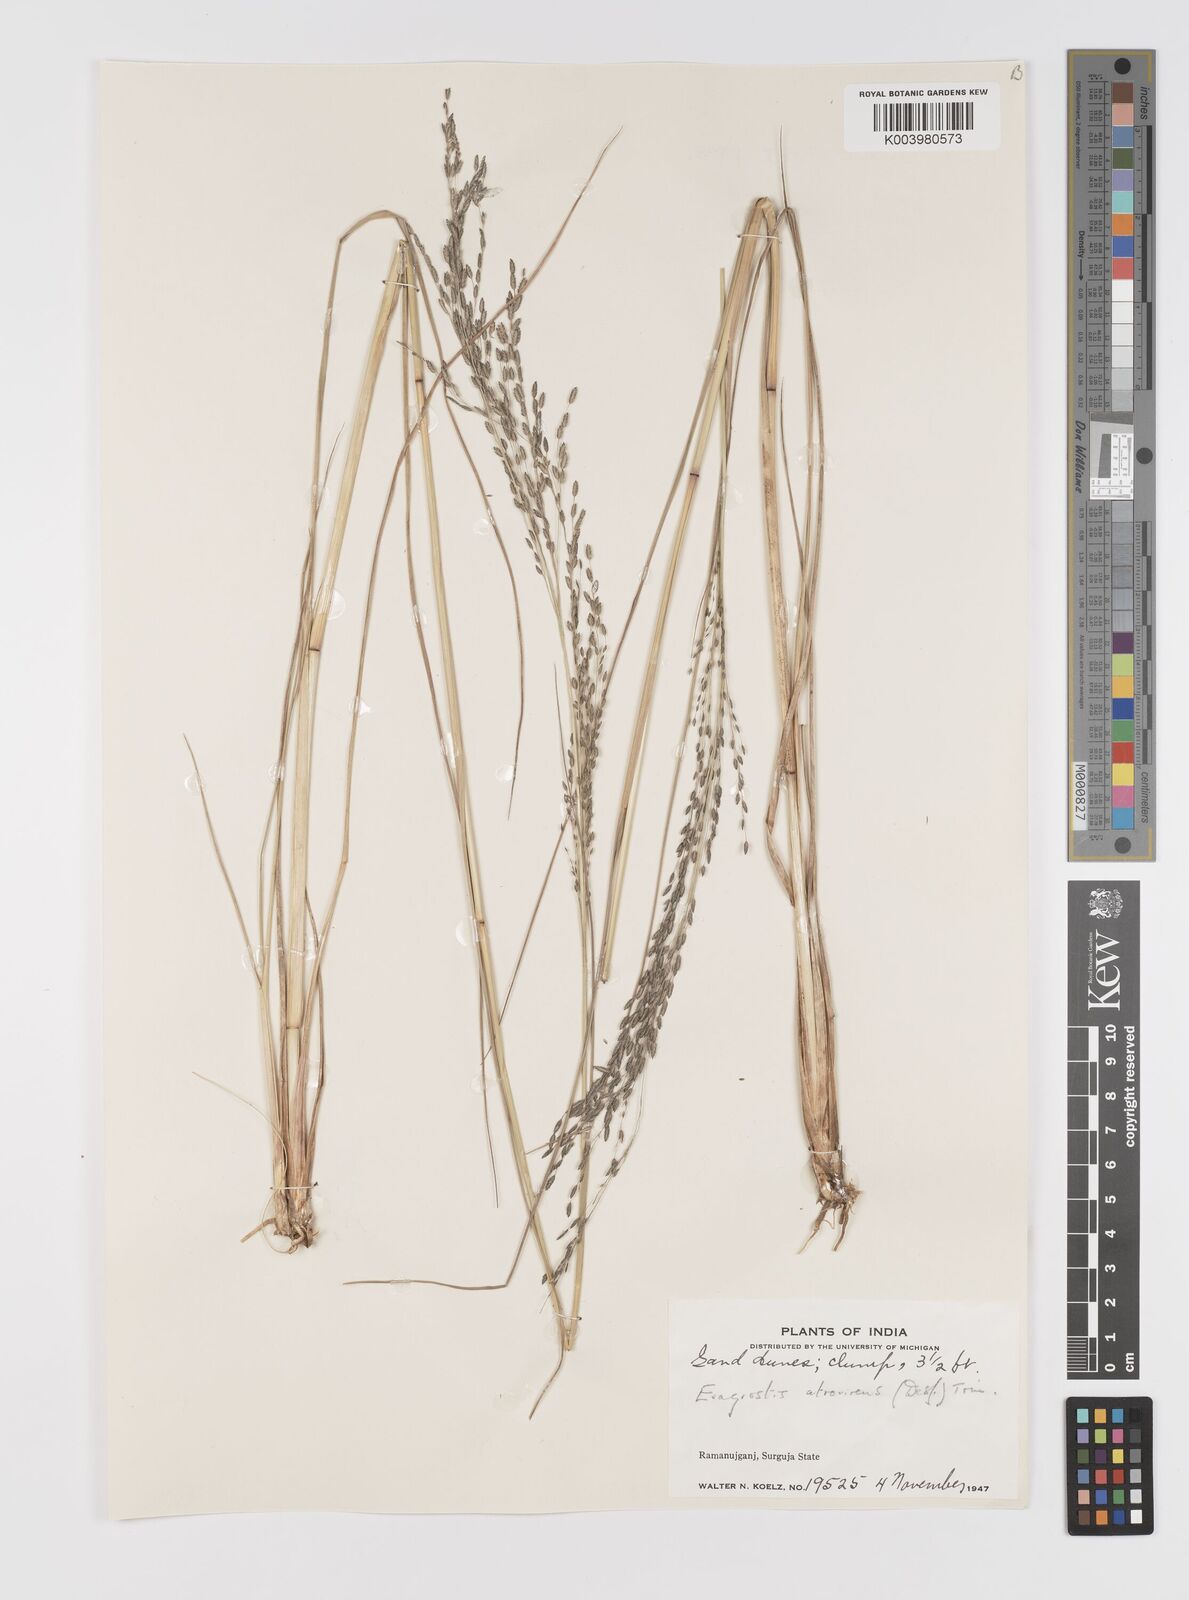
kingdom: Plantae
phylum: Tracheophyta
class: Liliopsida
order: Poales
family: Poaceae
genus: Eragrostis
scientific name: Eragrostis atrovirens
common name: Thalia lovegrass
